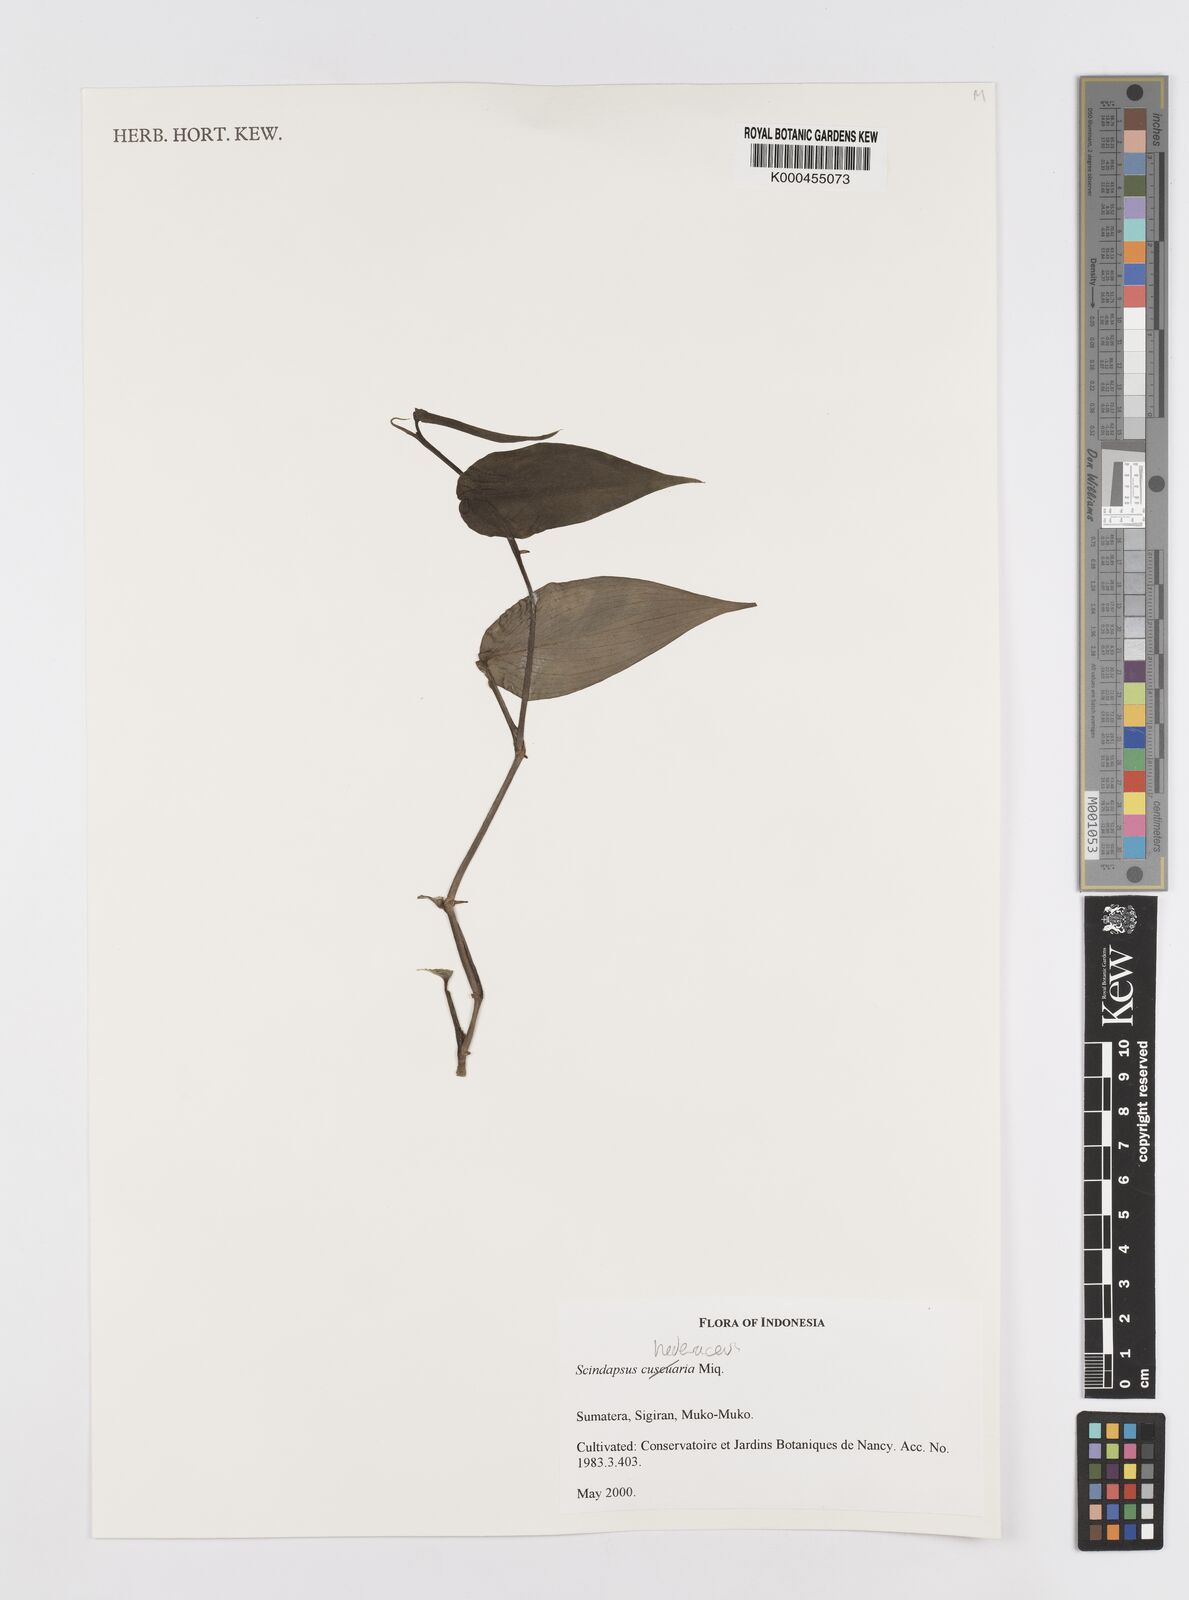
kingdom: Plantae
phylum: Tracheophyta
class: Liliopsida
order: Alismatales
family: Araceae
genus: Scindapsus
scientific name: Scindapsus hederaceus
